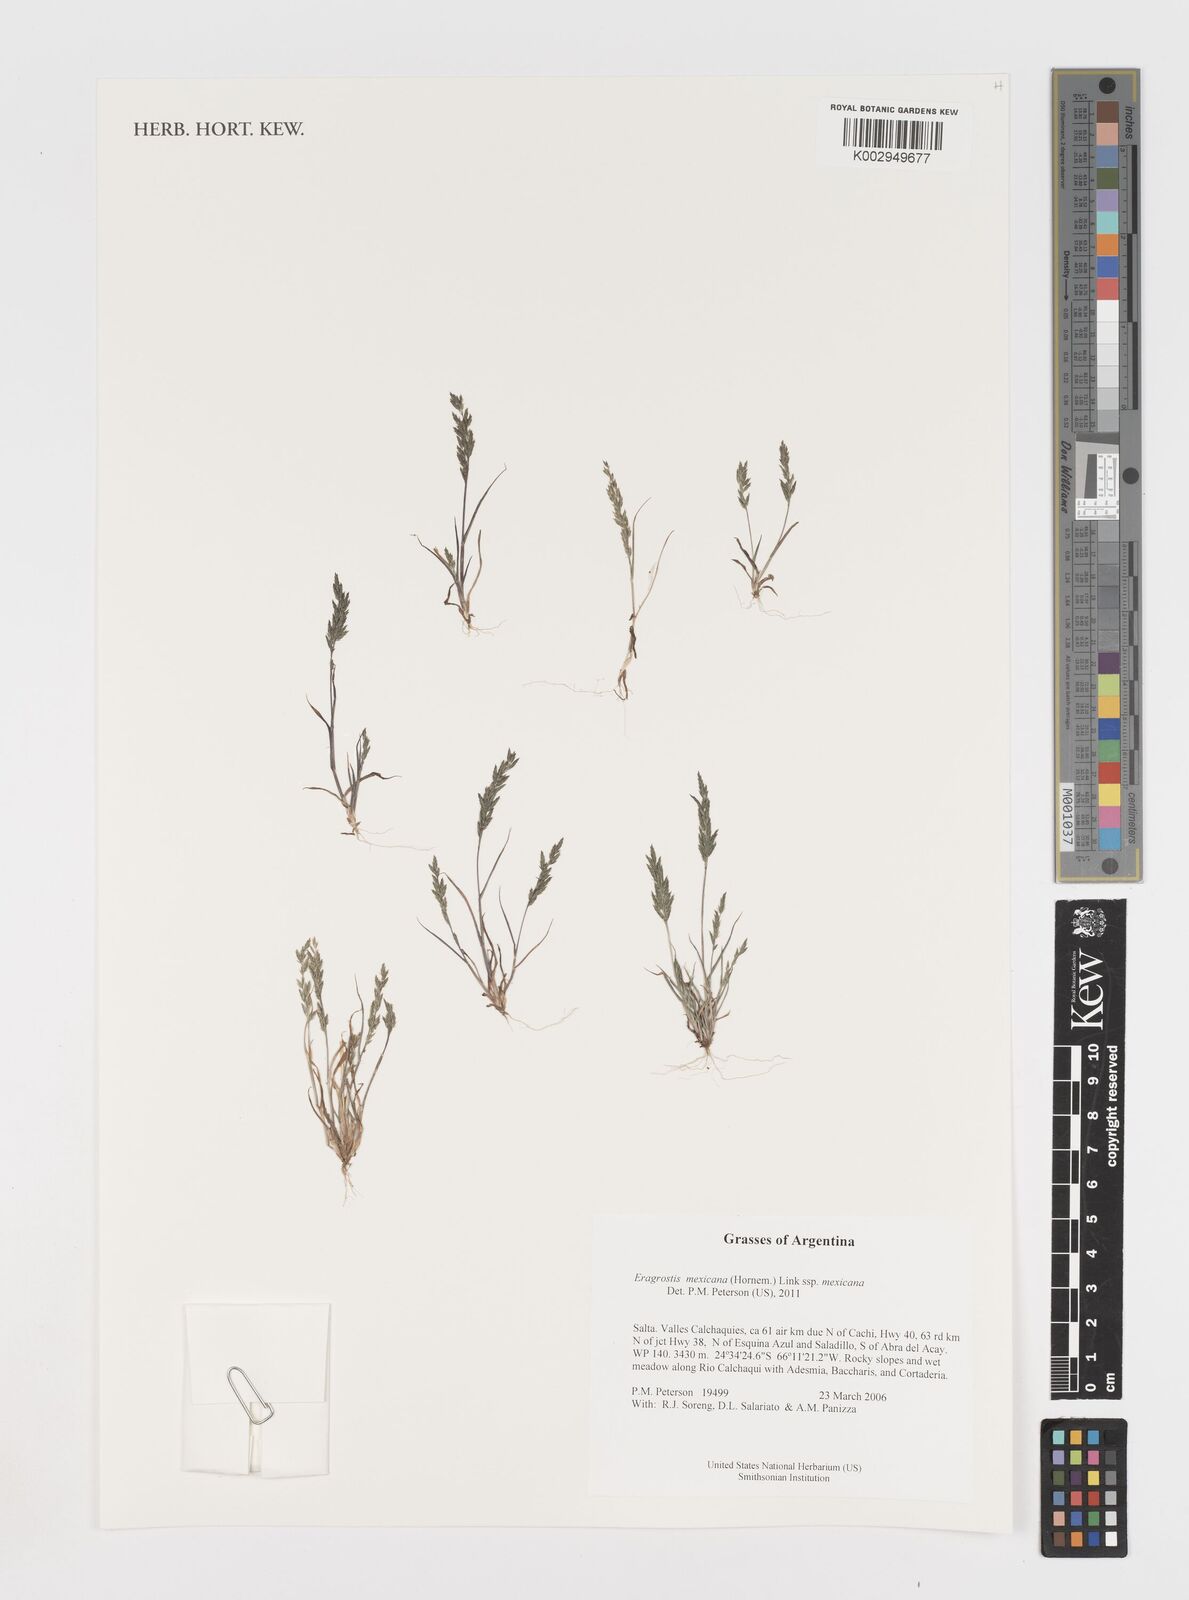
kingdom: Plantae
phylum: Tracheophyta
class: Liliopsida
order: Poales
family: Poaceae
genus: Eragrostis
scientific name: Eragrostis mexicana
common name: Mexican love grass
